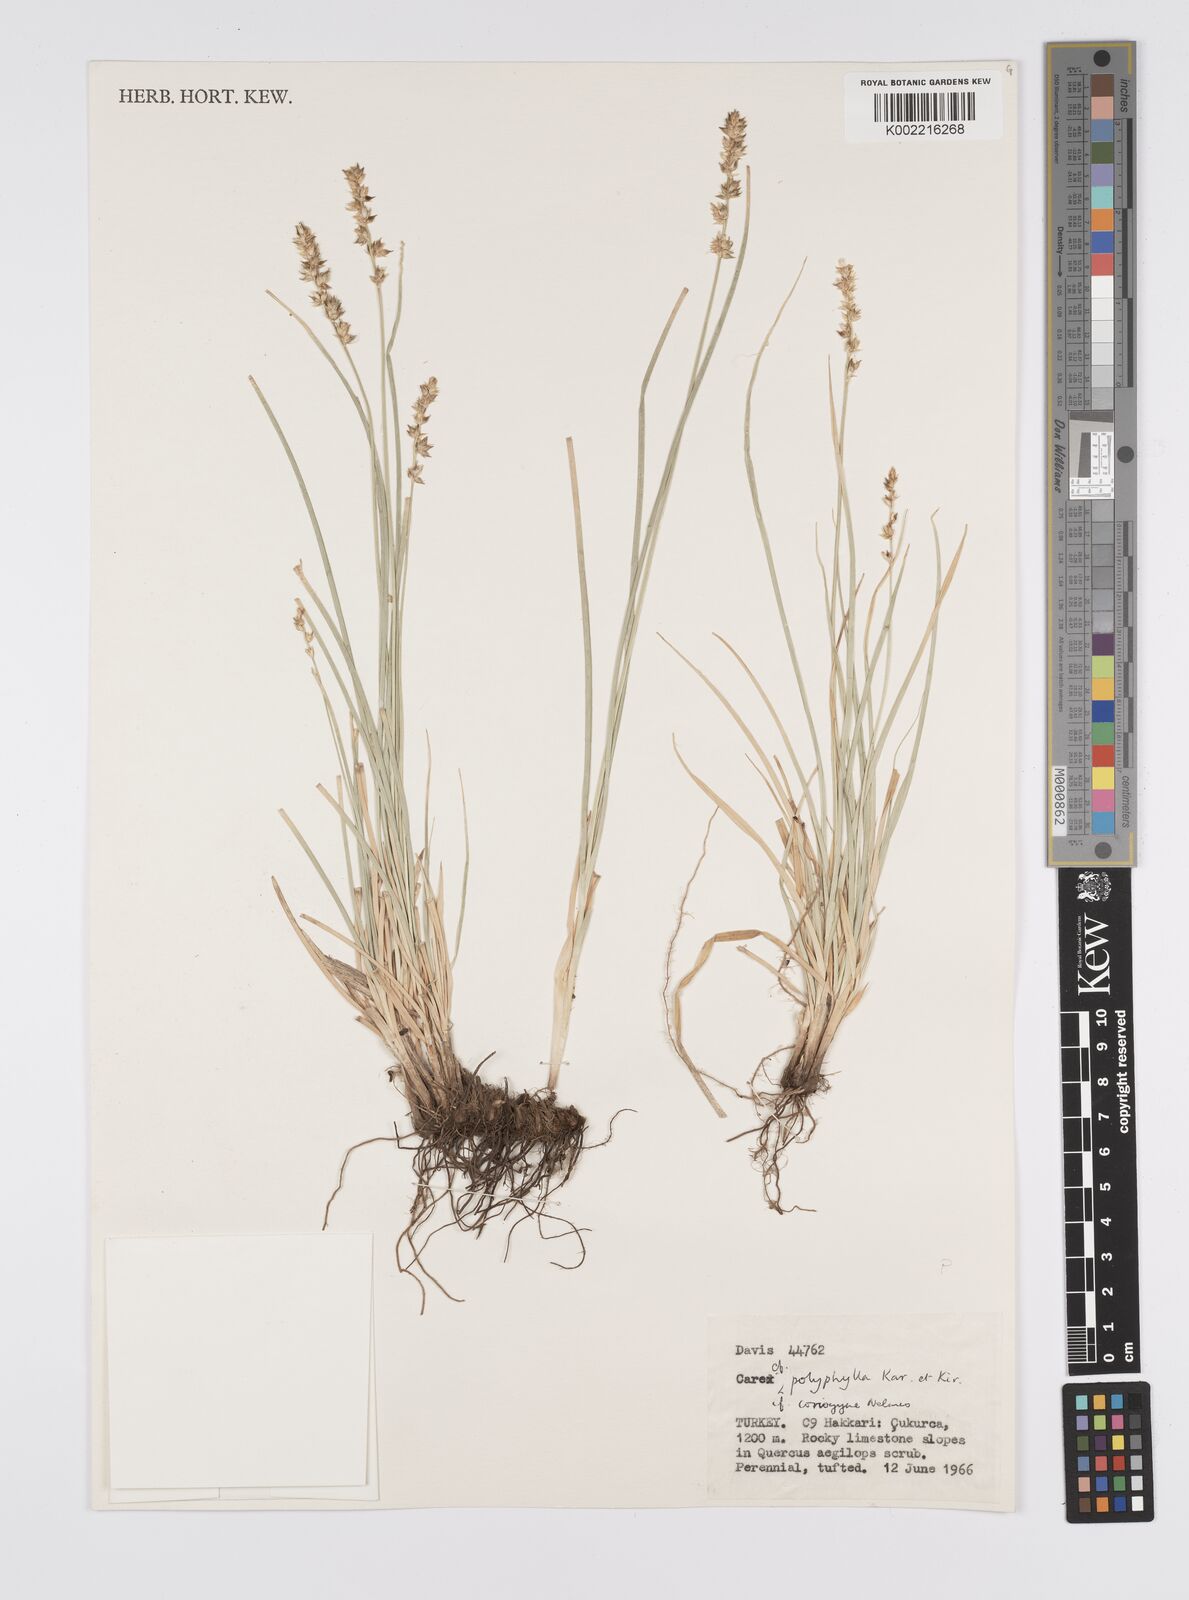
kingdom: Plantae
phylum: Tracheophyta
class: Liliopsida
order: Poales
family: Cyperaceae
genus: Carex
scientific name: Carex divulsa
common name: Grassland sedge
